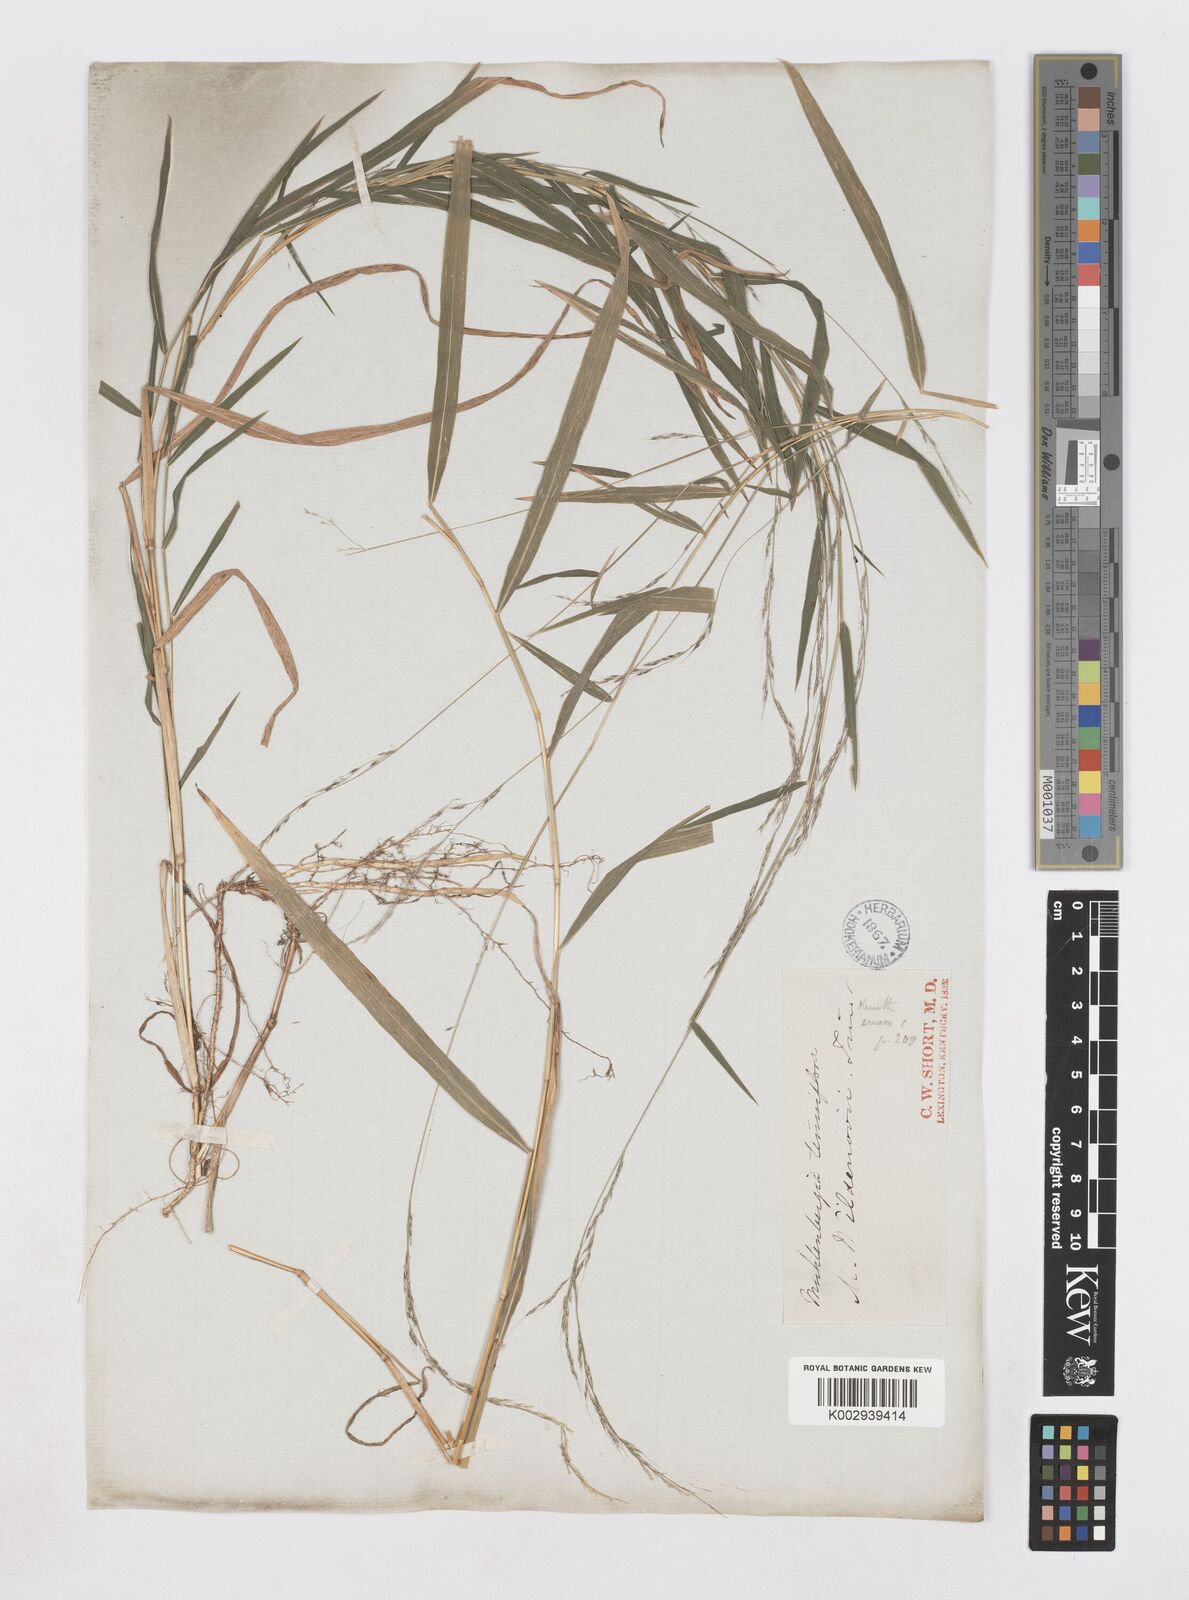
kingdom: Plantae
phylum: Tracheophyta
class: Liliopsida
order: Poales
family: Poaceae
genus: Muhlenbergia
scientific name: Muhlenbergia bushii
